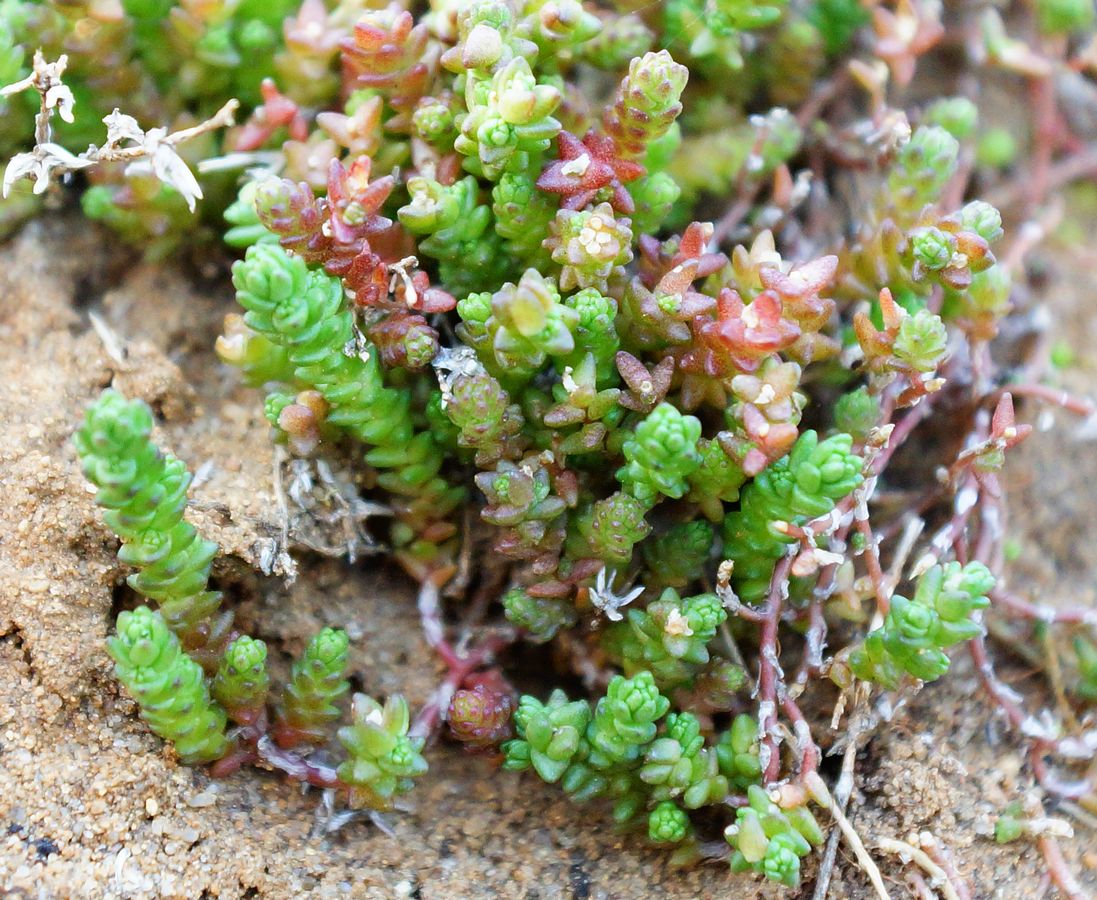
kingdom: Plantae
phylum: Tracheophyta
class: Magnoliopsida
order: Saxifragales
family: Crassulaceae
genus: Sedum
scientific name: Sedum acre
